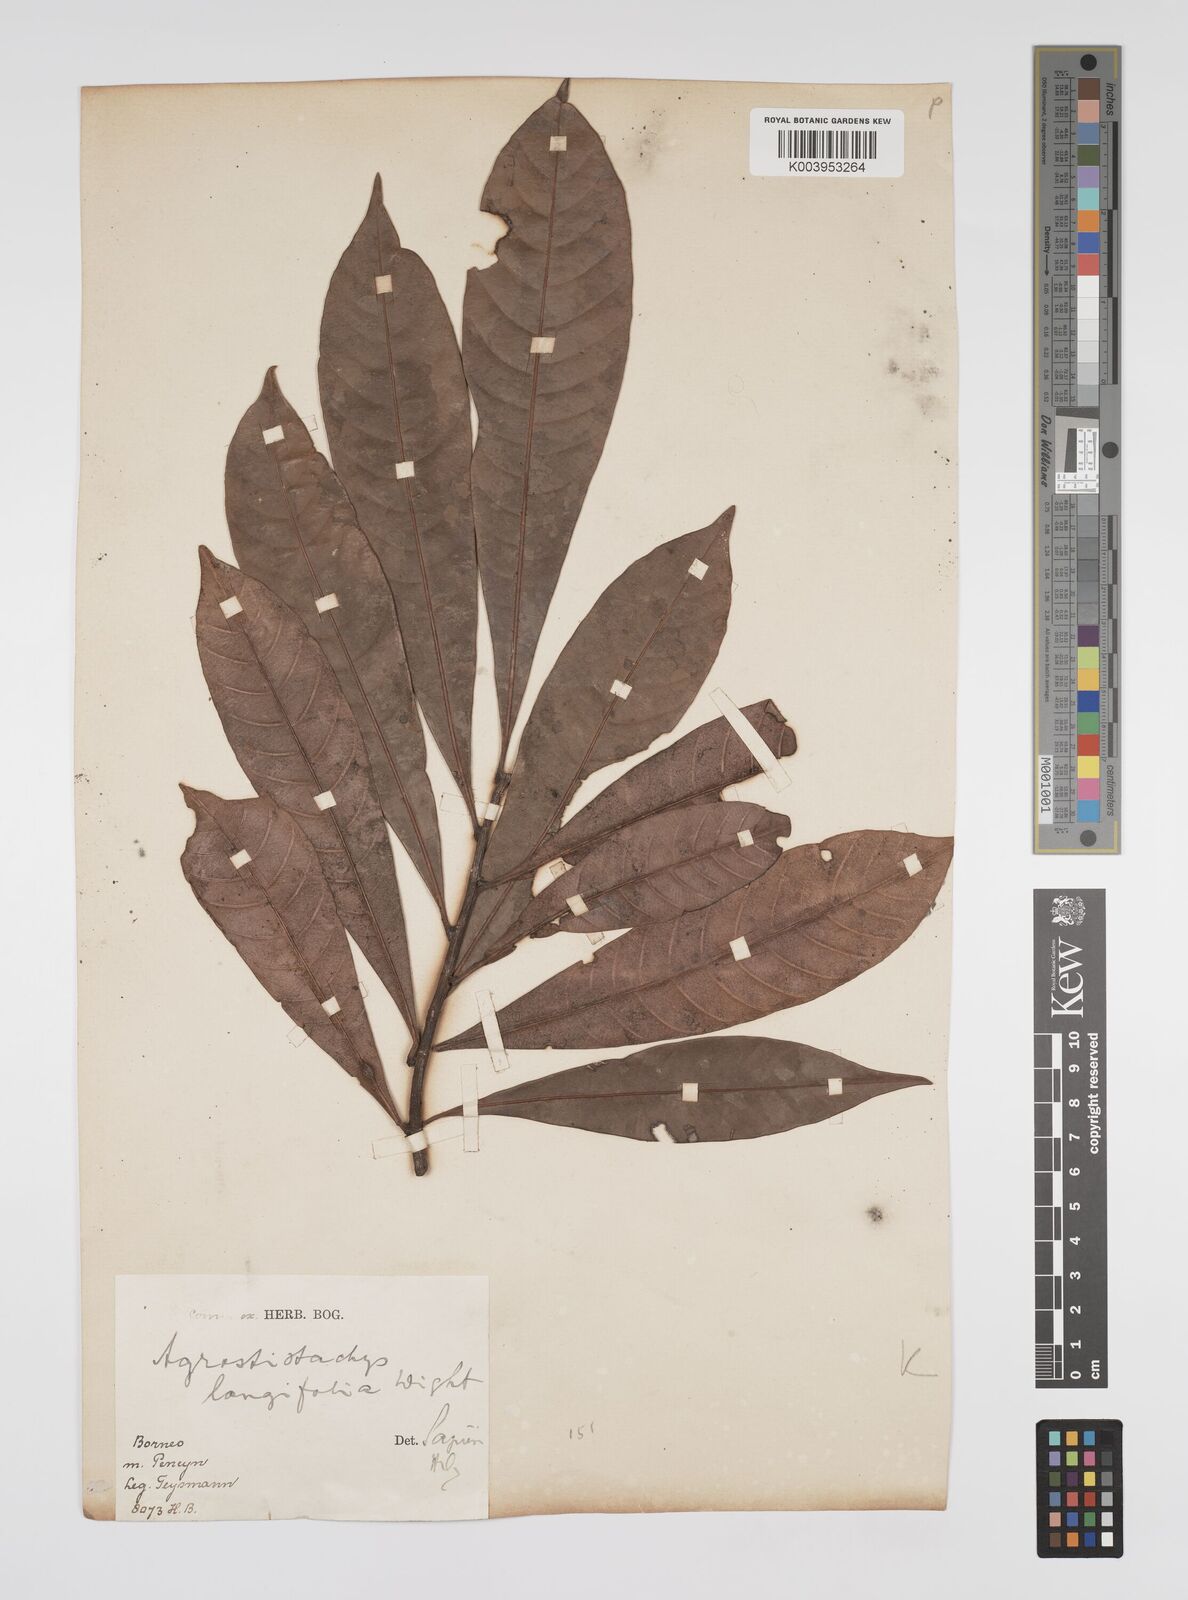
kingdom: Plantae
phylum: Tracheophyta
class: Magnoliopsida
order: Malpighiales
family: Euphorbiaceae
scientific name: Euphorbiaceae
